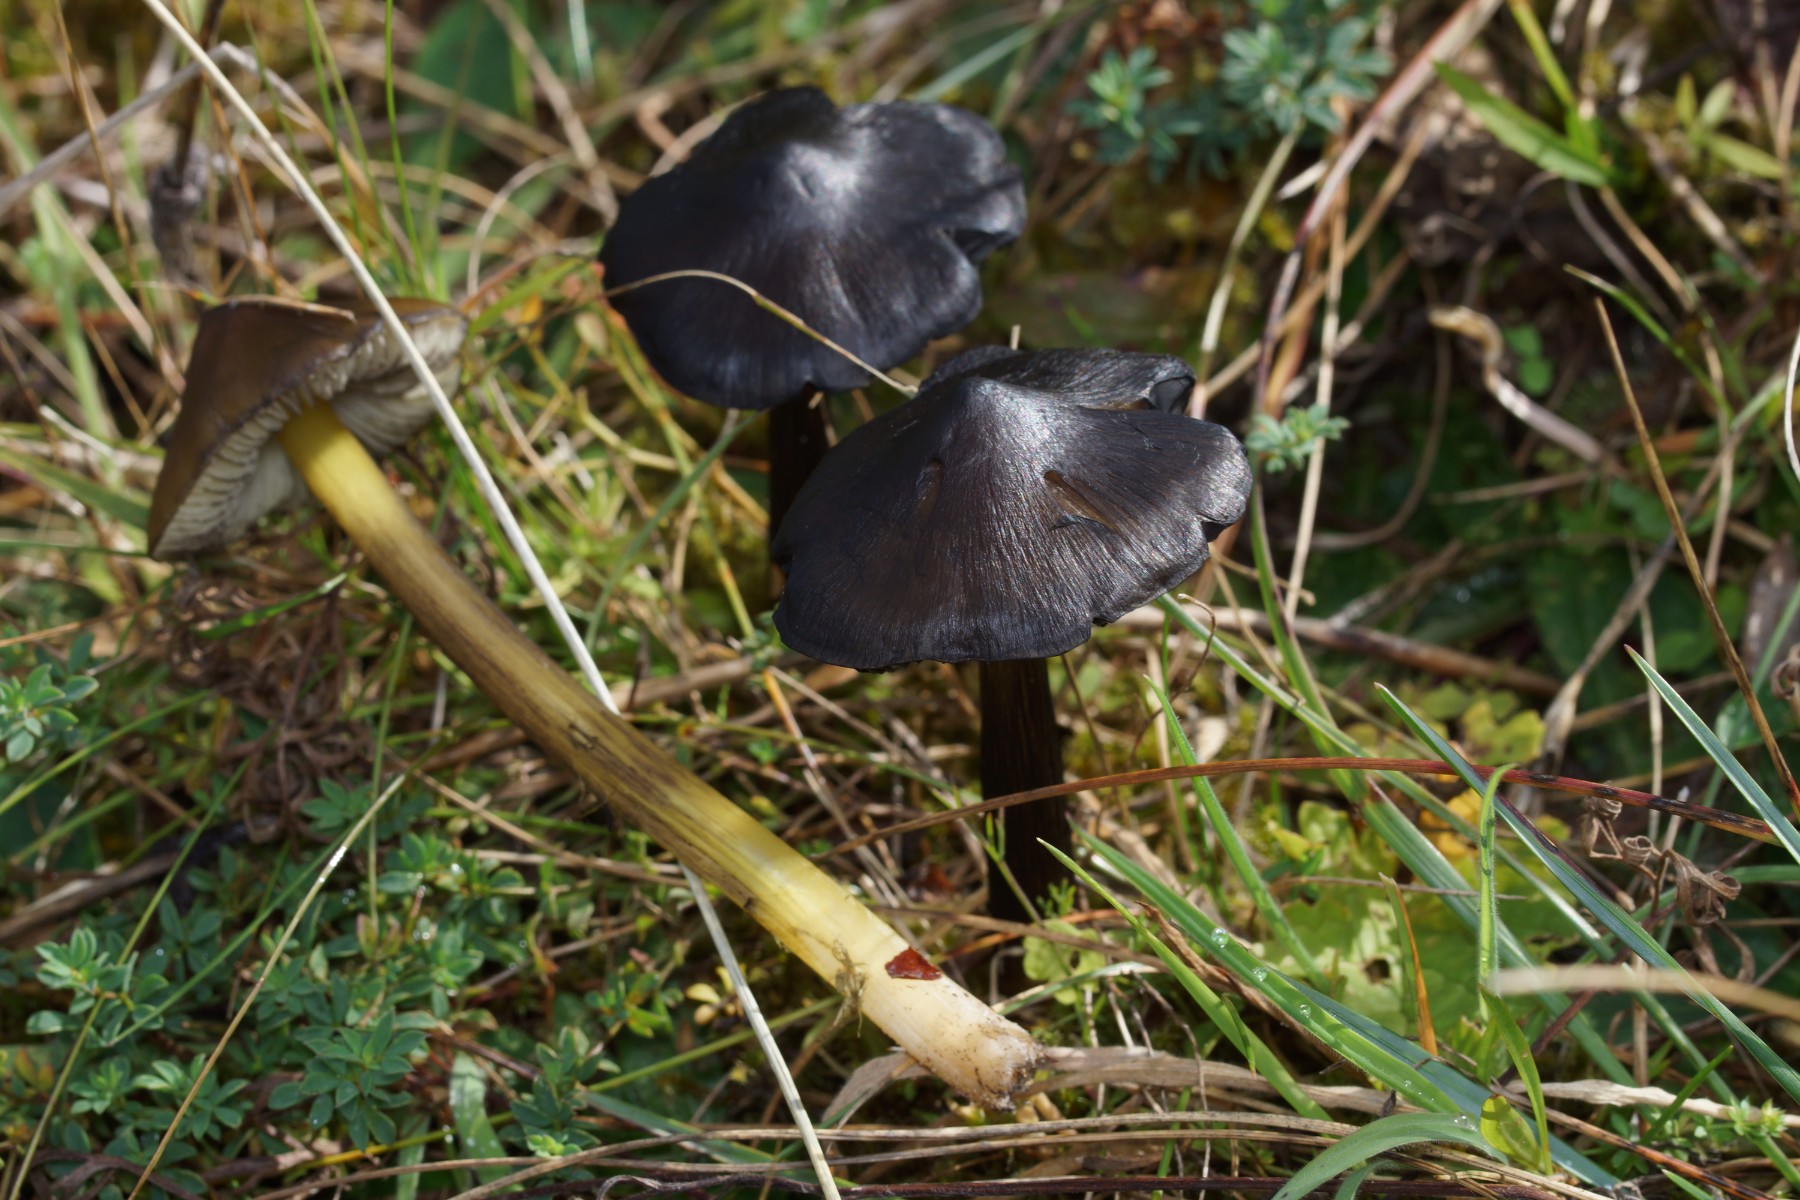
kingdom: Fungi
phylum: Basidiomycota
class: Agaricomycetes
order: Agaricales
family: Hygrophoraceae
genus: Hygrocybe
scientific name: Hygrocybe conica
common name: kegle-vokshat
